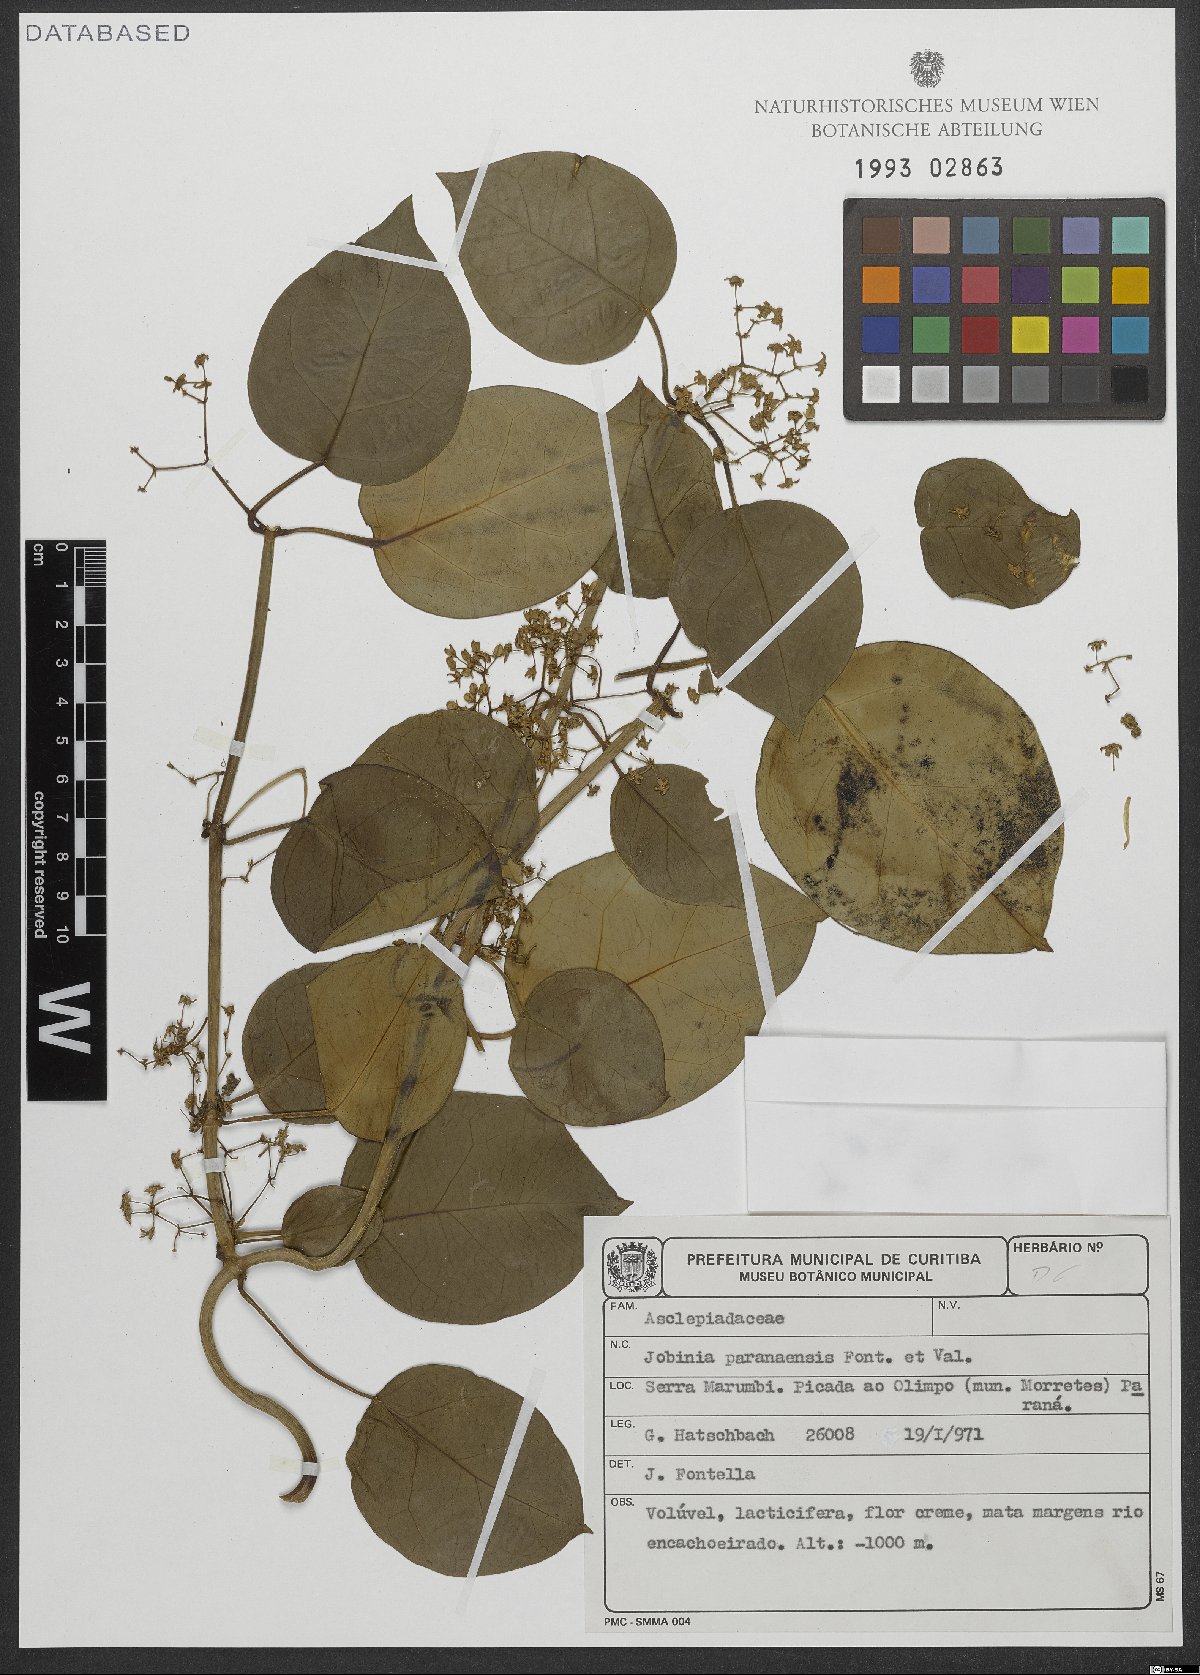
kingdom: Plantae
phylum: Tracheophyta
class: Magnoliopsida
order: Gentianales
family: Apocynaceae
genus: Jobinia
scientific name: Jobinia paranaensis
